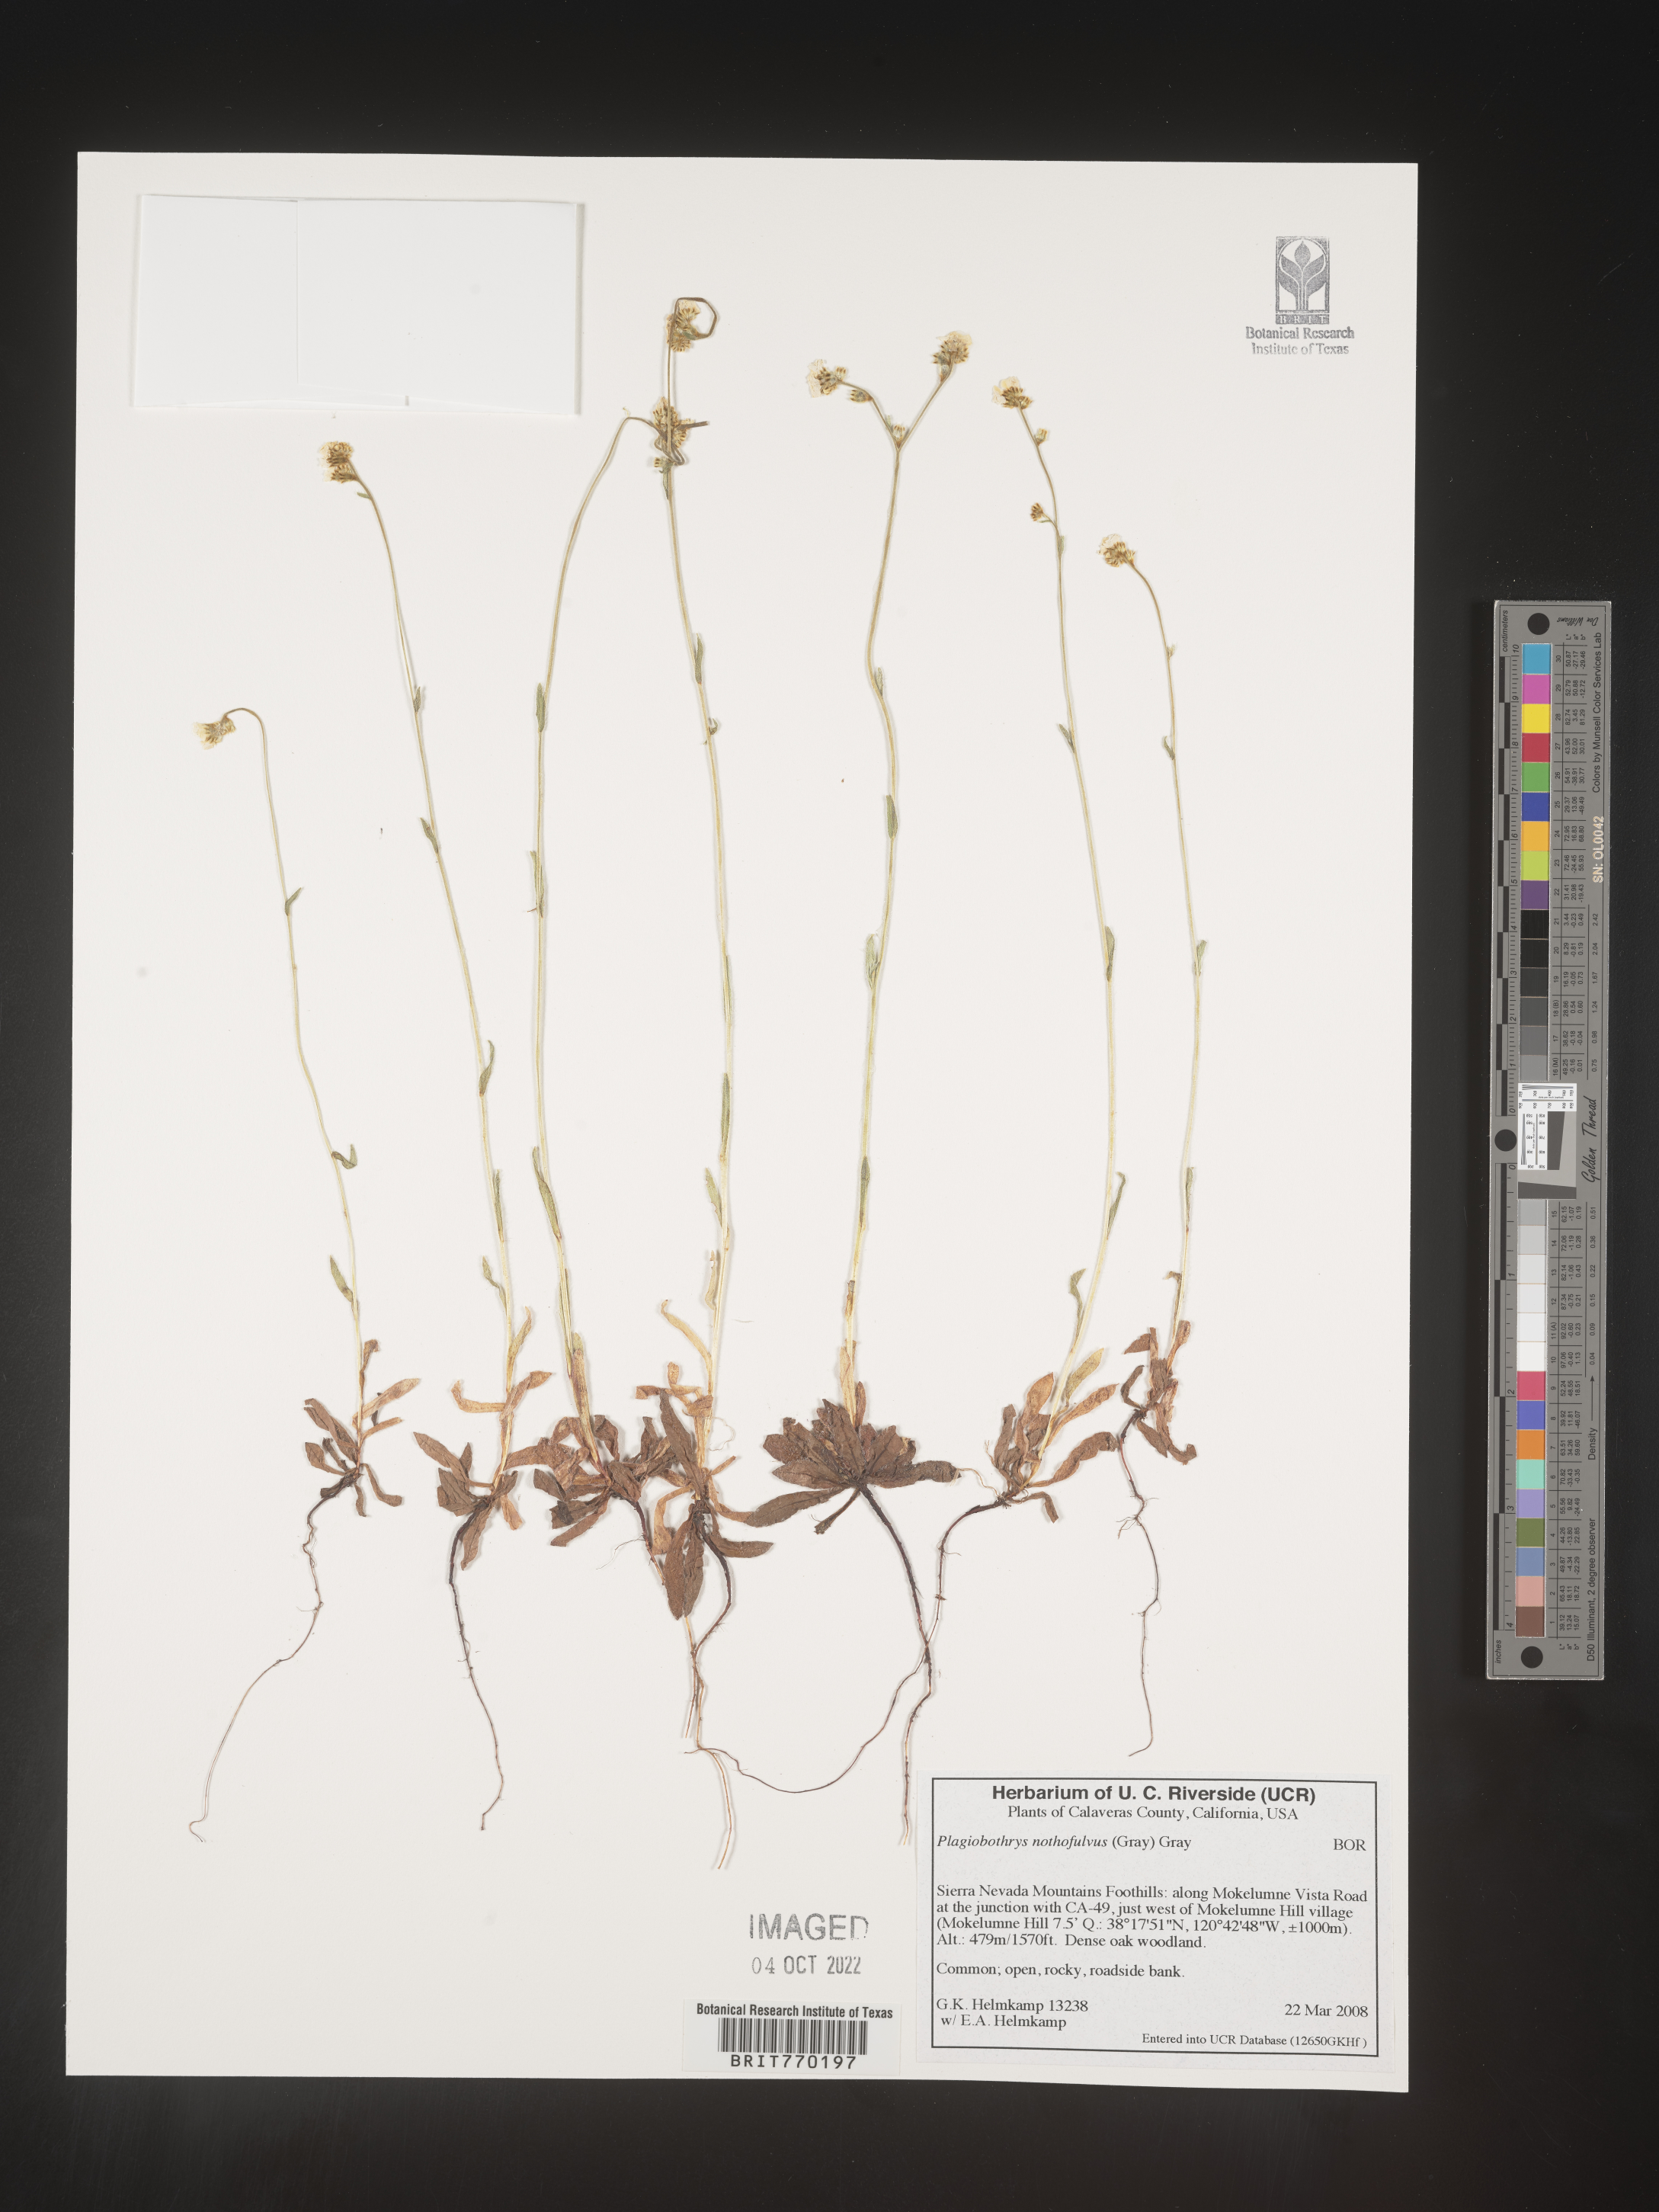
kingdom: Plantae
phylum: Tracheophyta
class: Magnoliopsida
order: Boraginales
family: Boraginaceae
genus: Plagiobothrys
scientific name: Plagiobothrys
